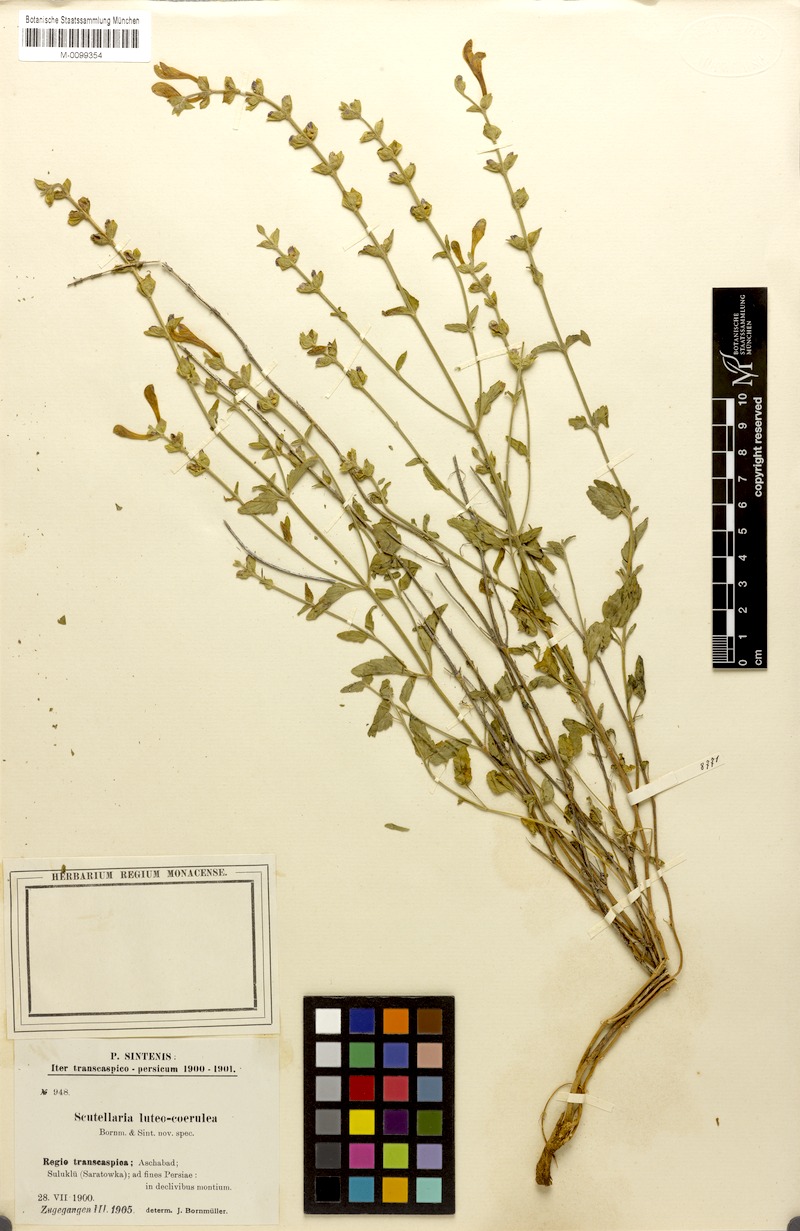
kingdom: Plantae
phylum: Tracheophyta
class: Magnoliopsida
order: Lamiales
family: Lamiaceae
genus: Scutellaria
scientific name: Scutellaria luteocaerulea
